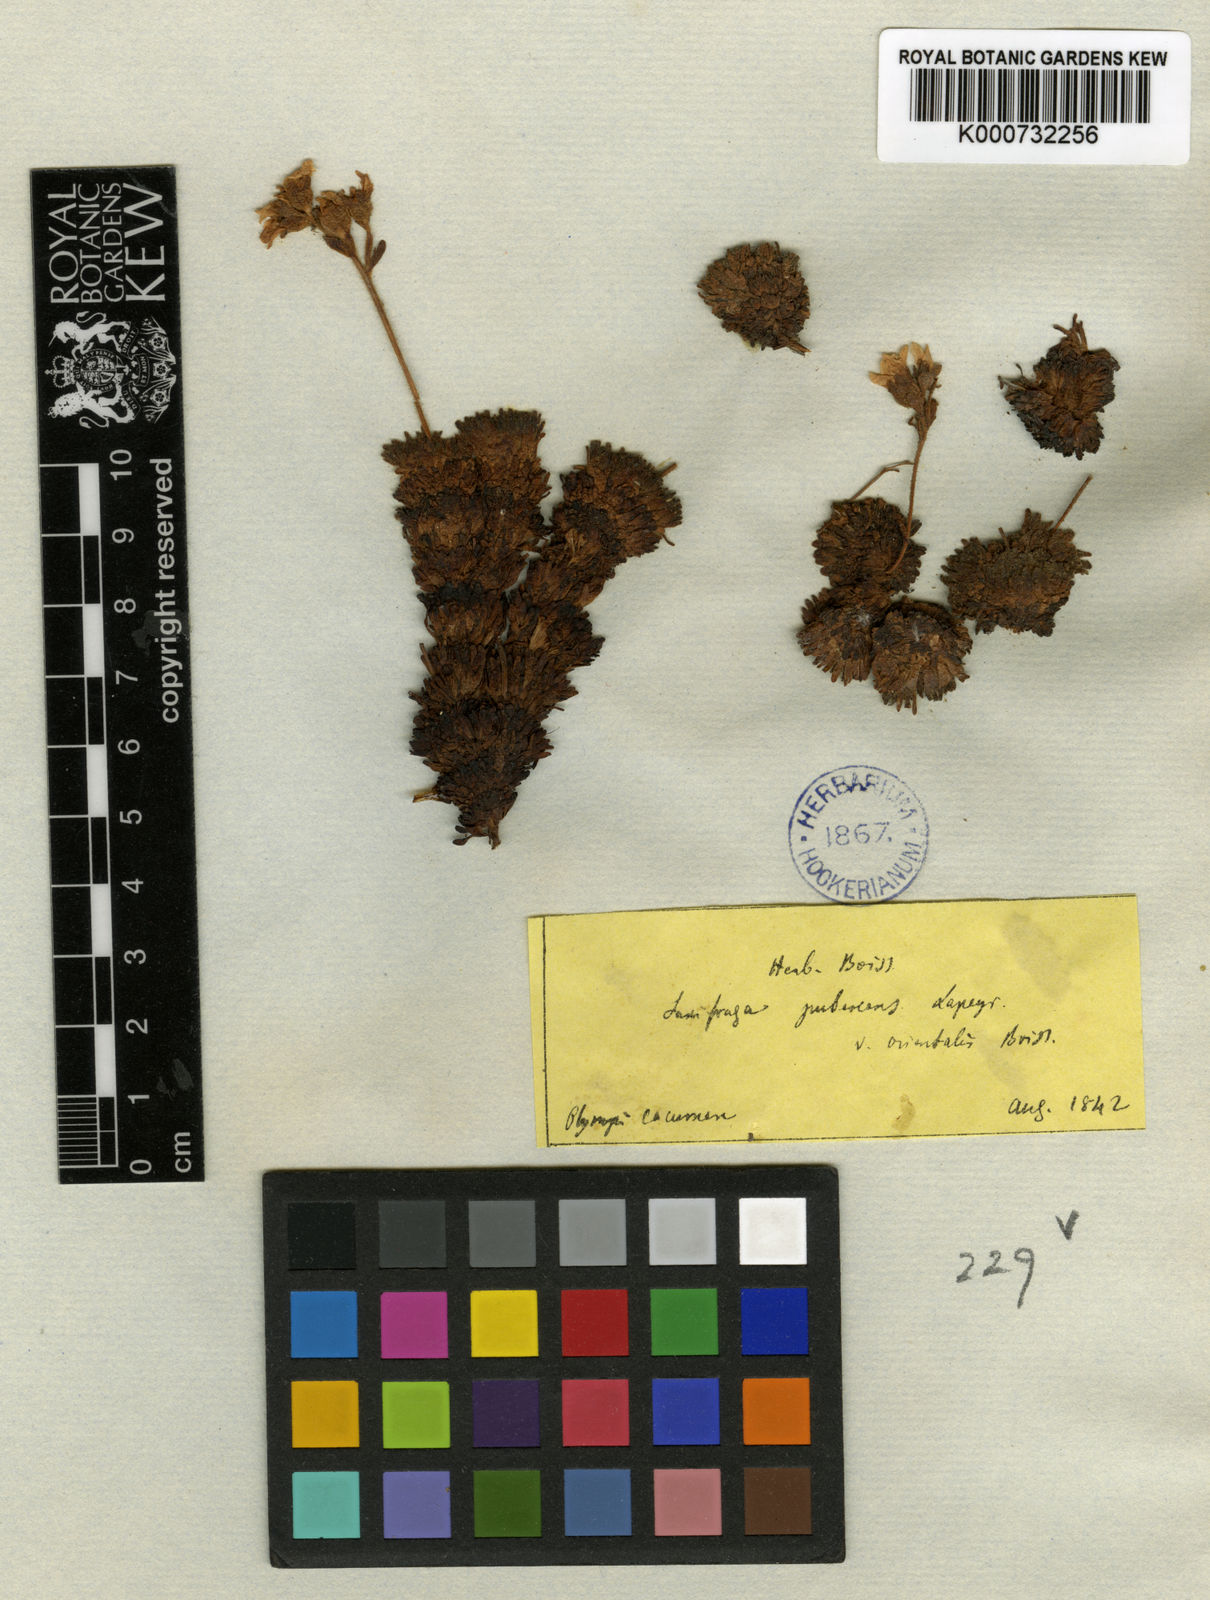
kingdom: Plantae
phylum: Tracheophyta
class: Magnoliopsida
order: Saxifragales
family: Saxifragaceae
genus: Saxifraga
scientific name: Saxifraga
